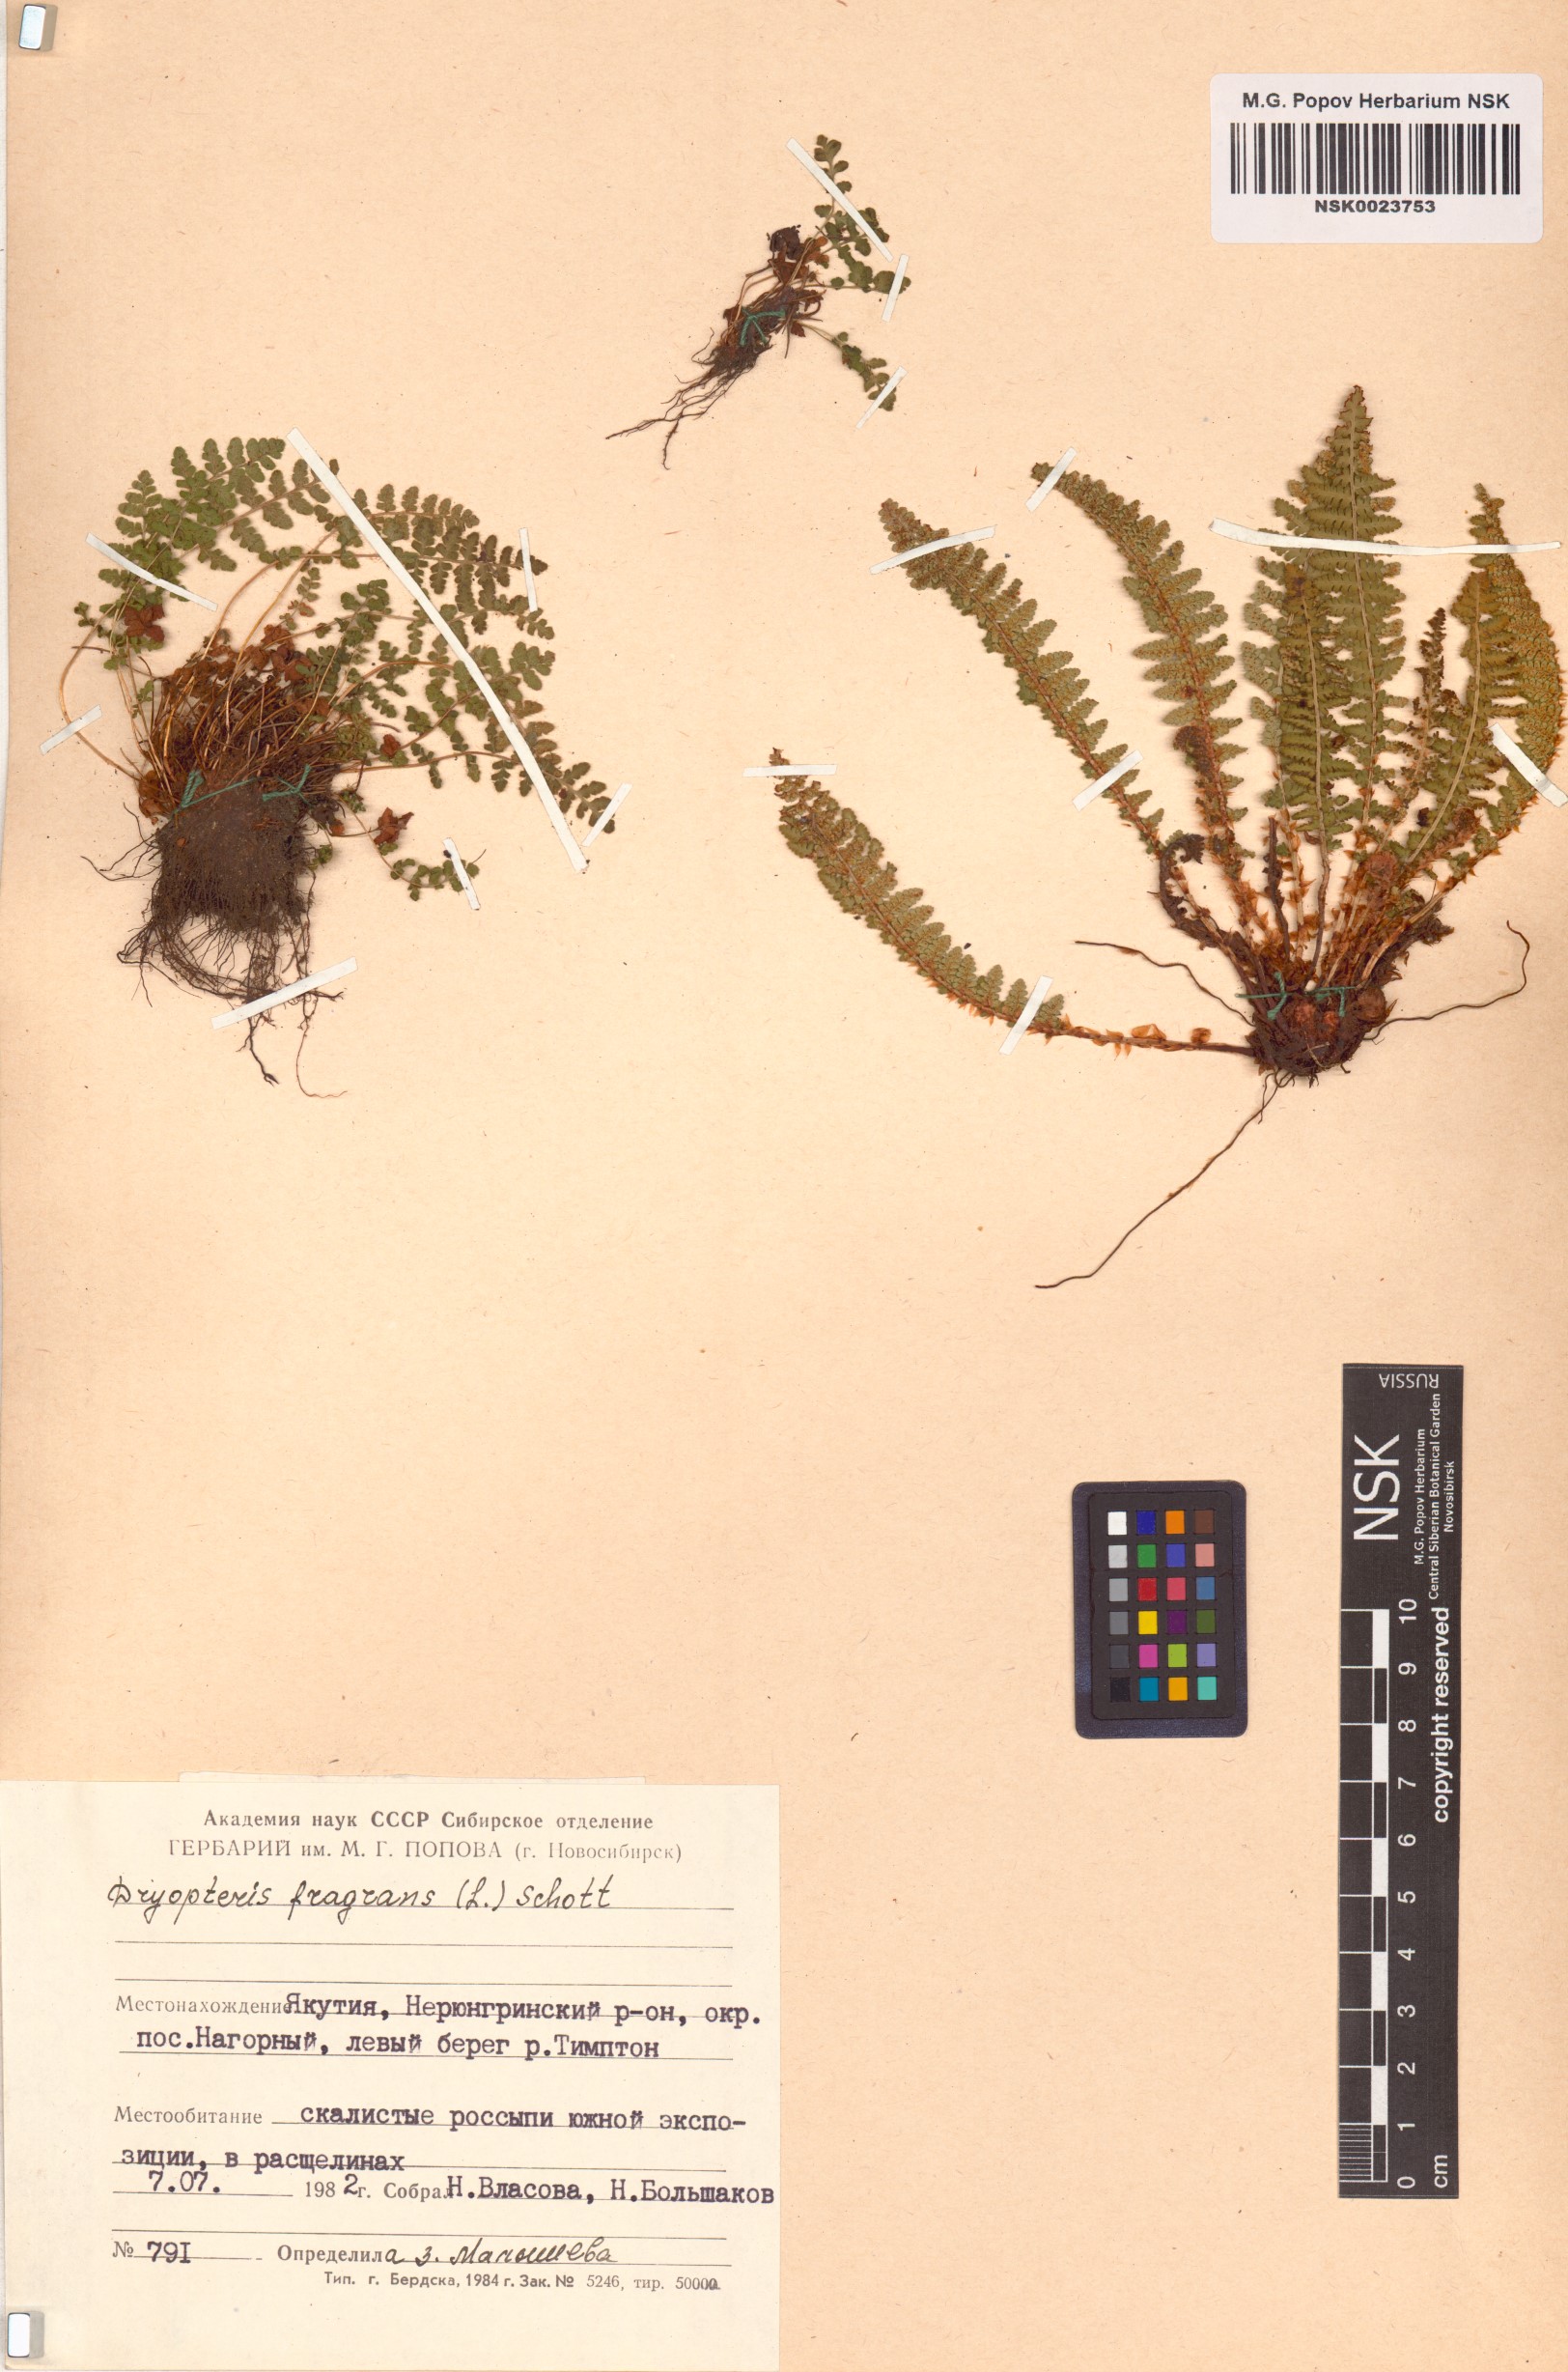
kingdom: Plantae
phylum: Tracheophyta
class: Polypodiopsida
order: Polypodiales
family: Dryopteridaceae
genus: Dryopteris
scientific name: Dryopteris fragrans
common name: Fragrant wood fern
